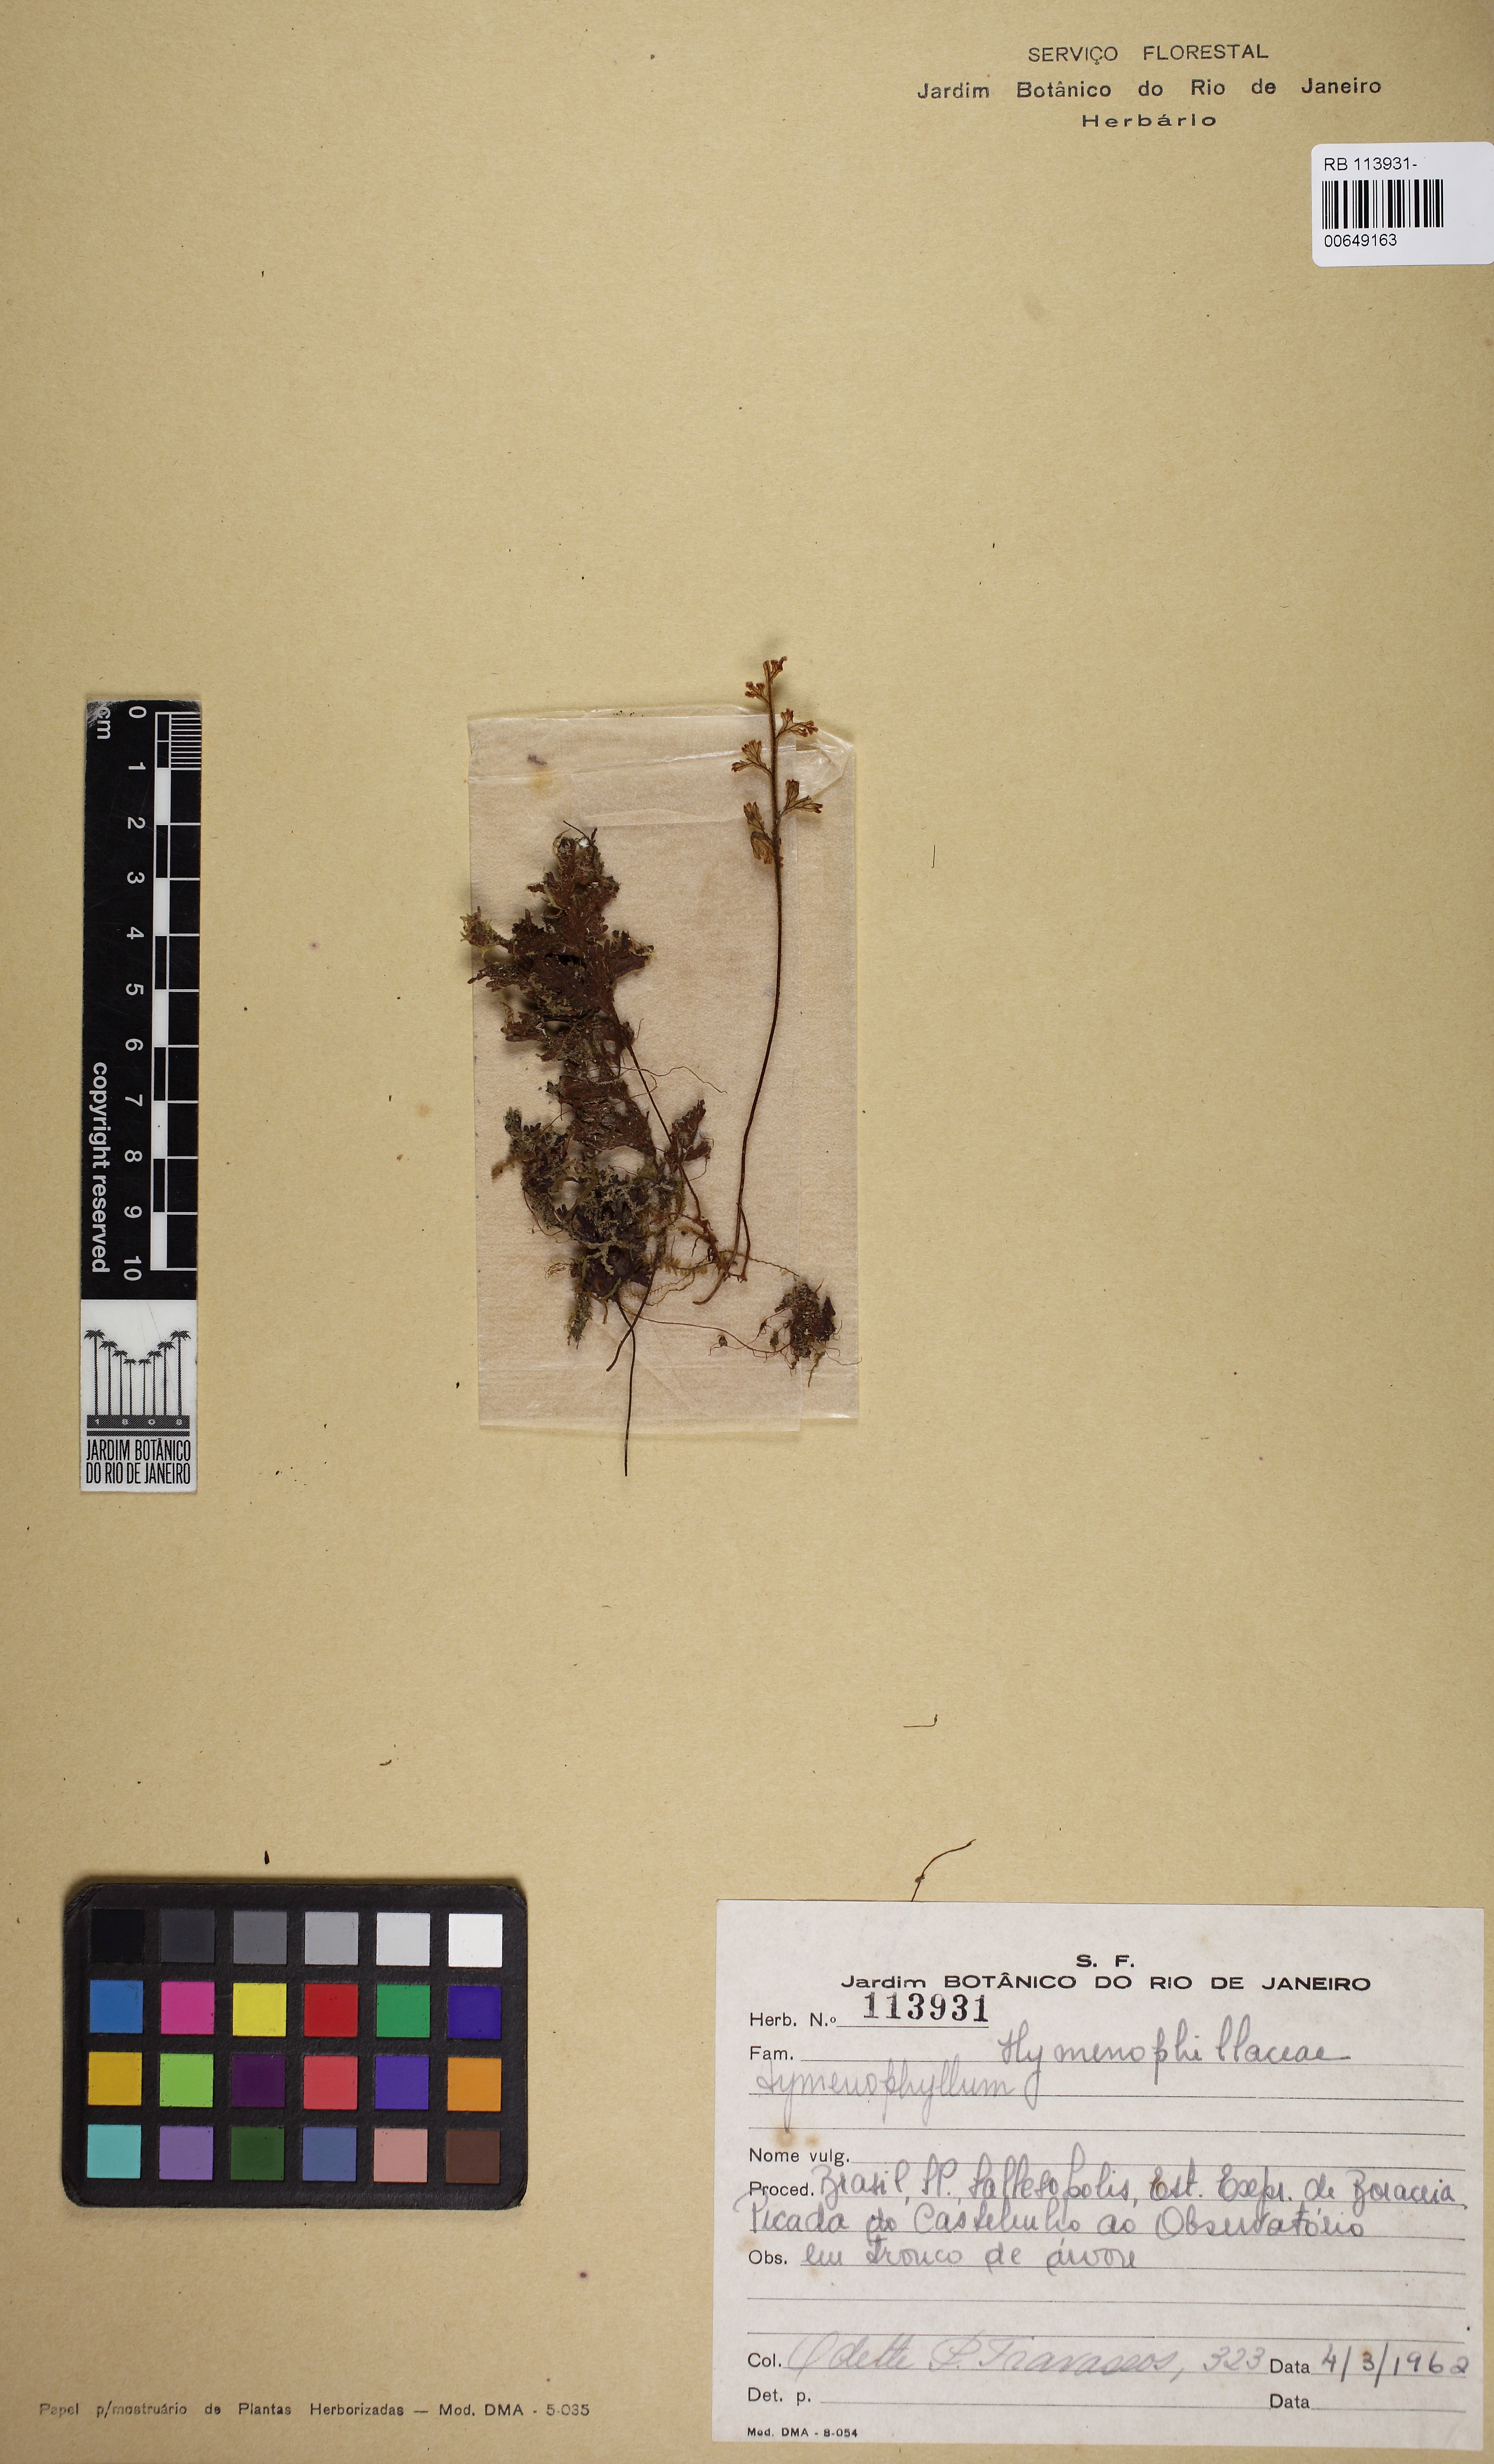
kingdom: Plantae
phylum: Tracheophyta
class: Polypodiopsida
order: Hymenophyllales
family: Hymenophyllaceae
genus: Hymenophyllum
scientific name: Hymenophyllum hirsutum
